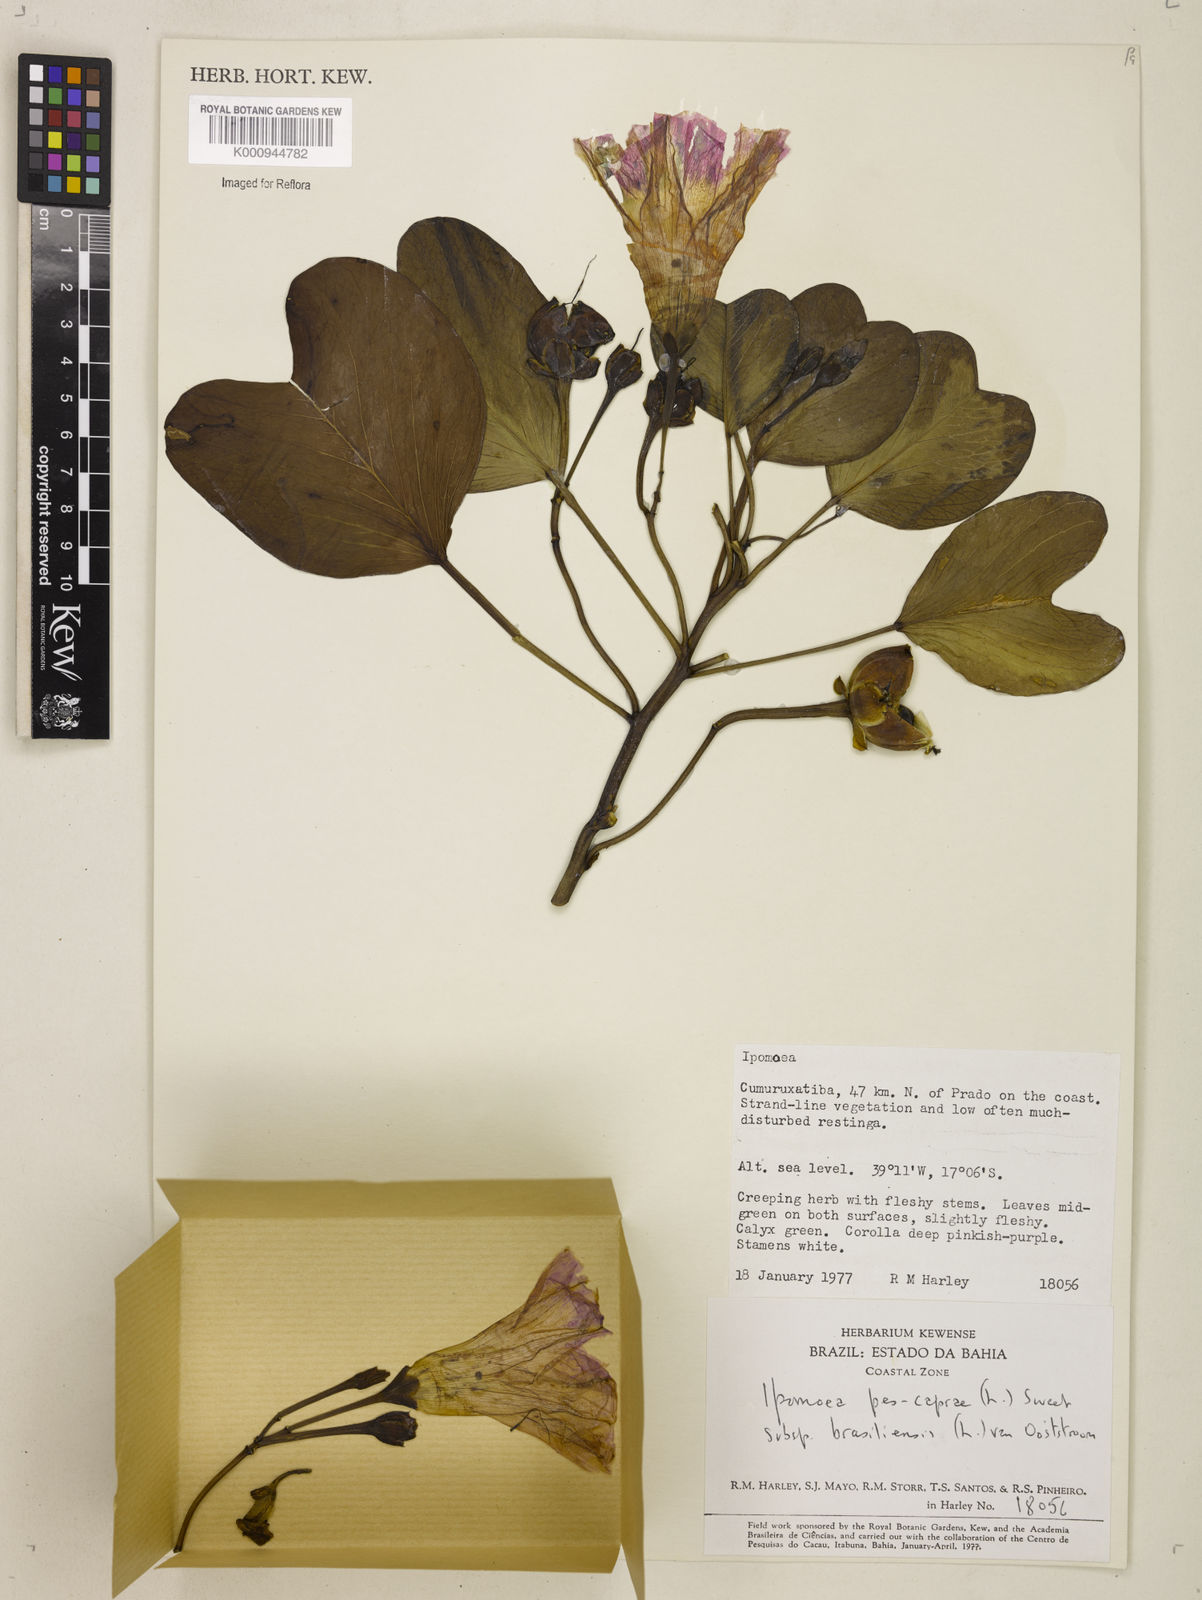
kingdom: Plantae
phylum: Tracheophyta
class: Magnoliopsida
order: Solanales
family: Convolvulaceae
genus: Ipomoea
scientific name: Ipomoea pes-caprae
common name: Beach morning glory
